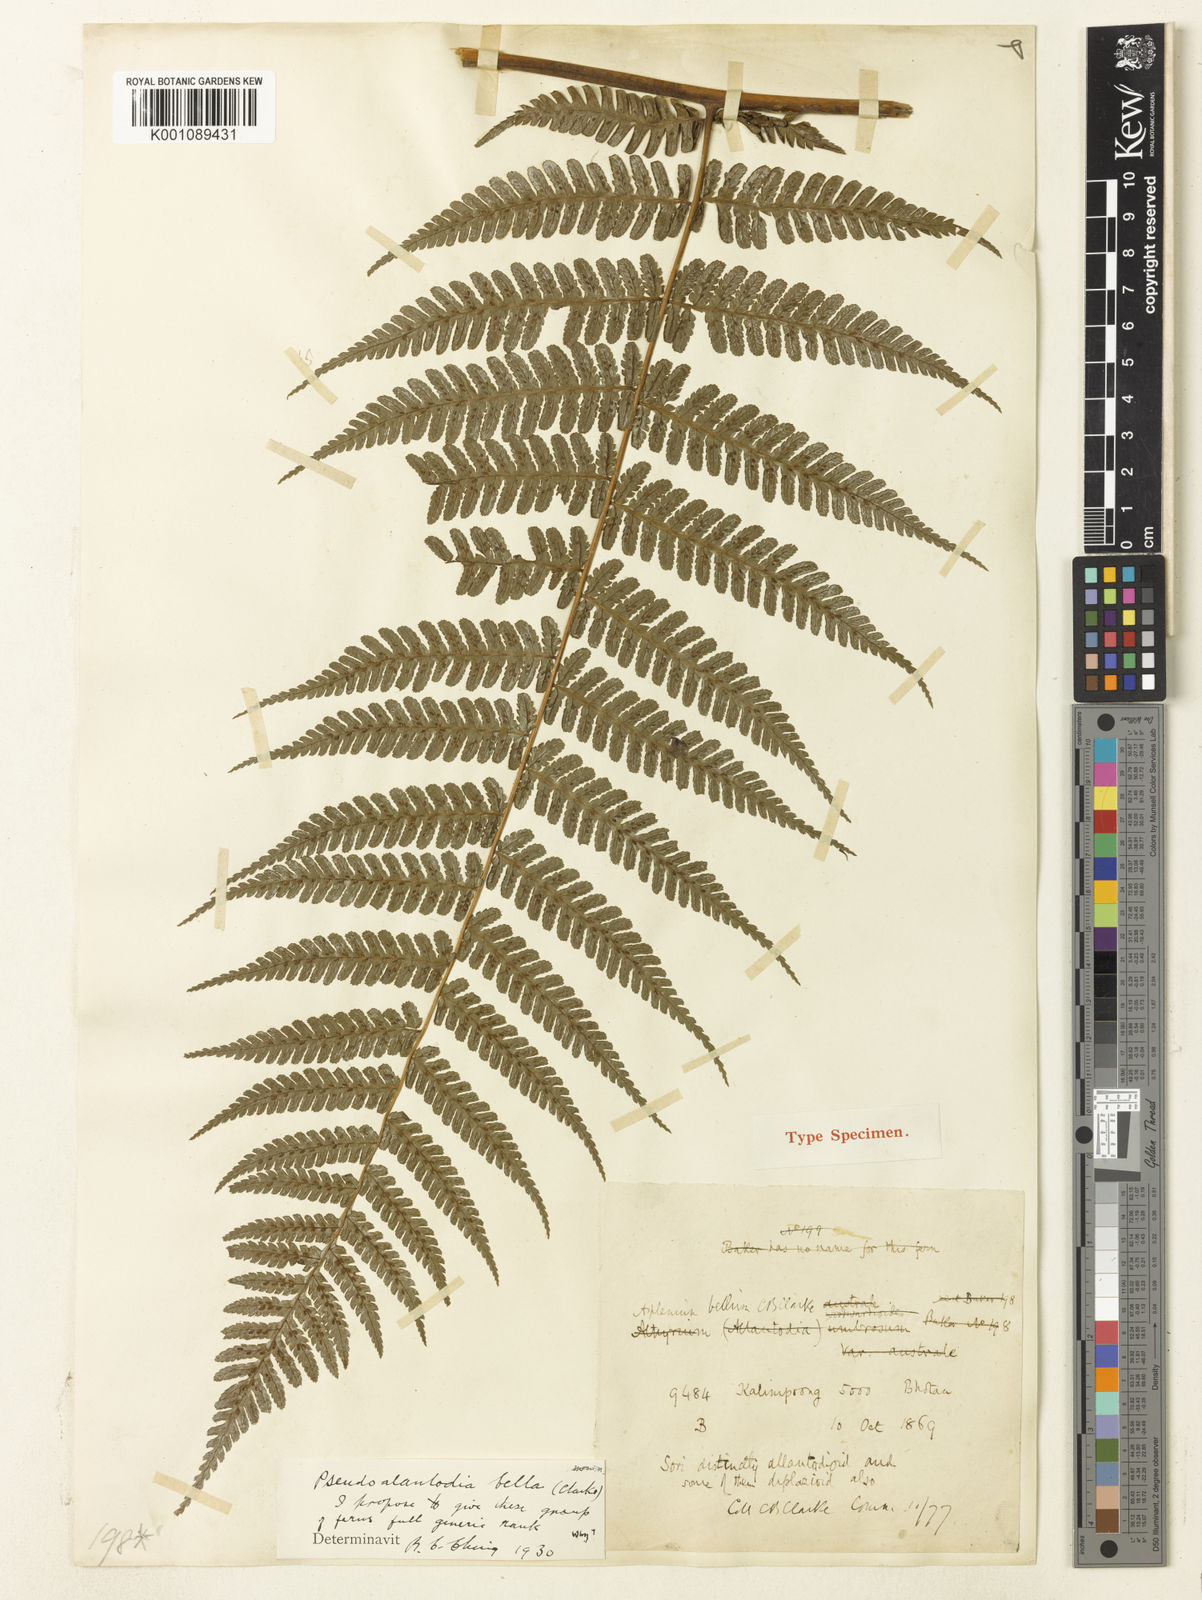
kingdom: Plantae
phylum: Tracheophyta
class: Polypodiopsida
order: Polypodiales
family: Athyriaceae
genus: Diplazium
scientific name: Diplazium bellum
